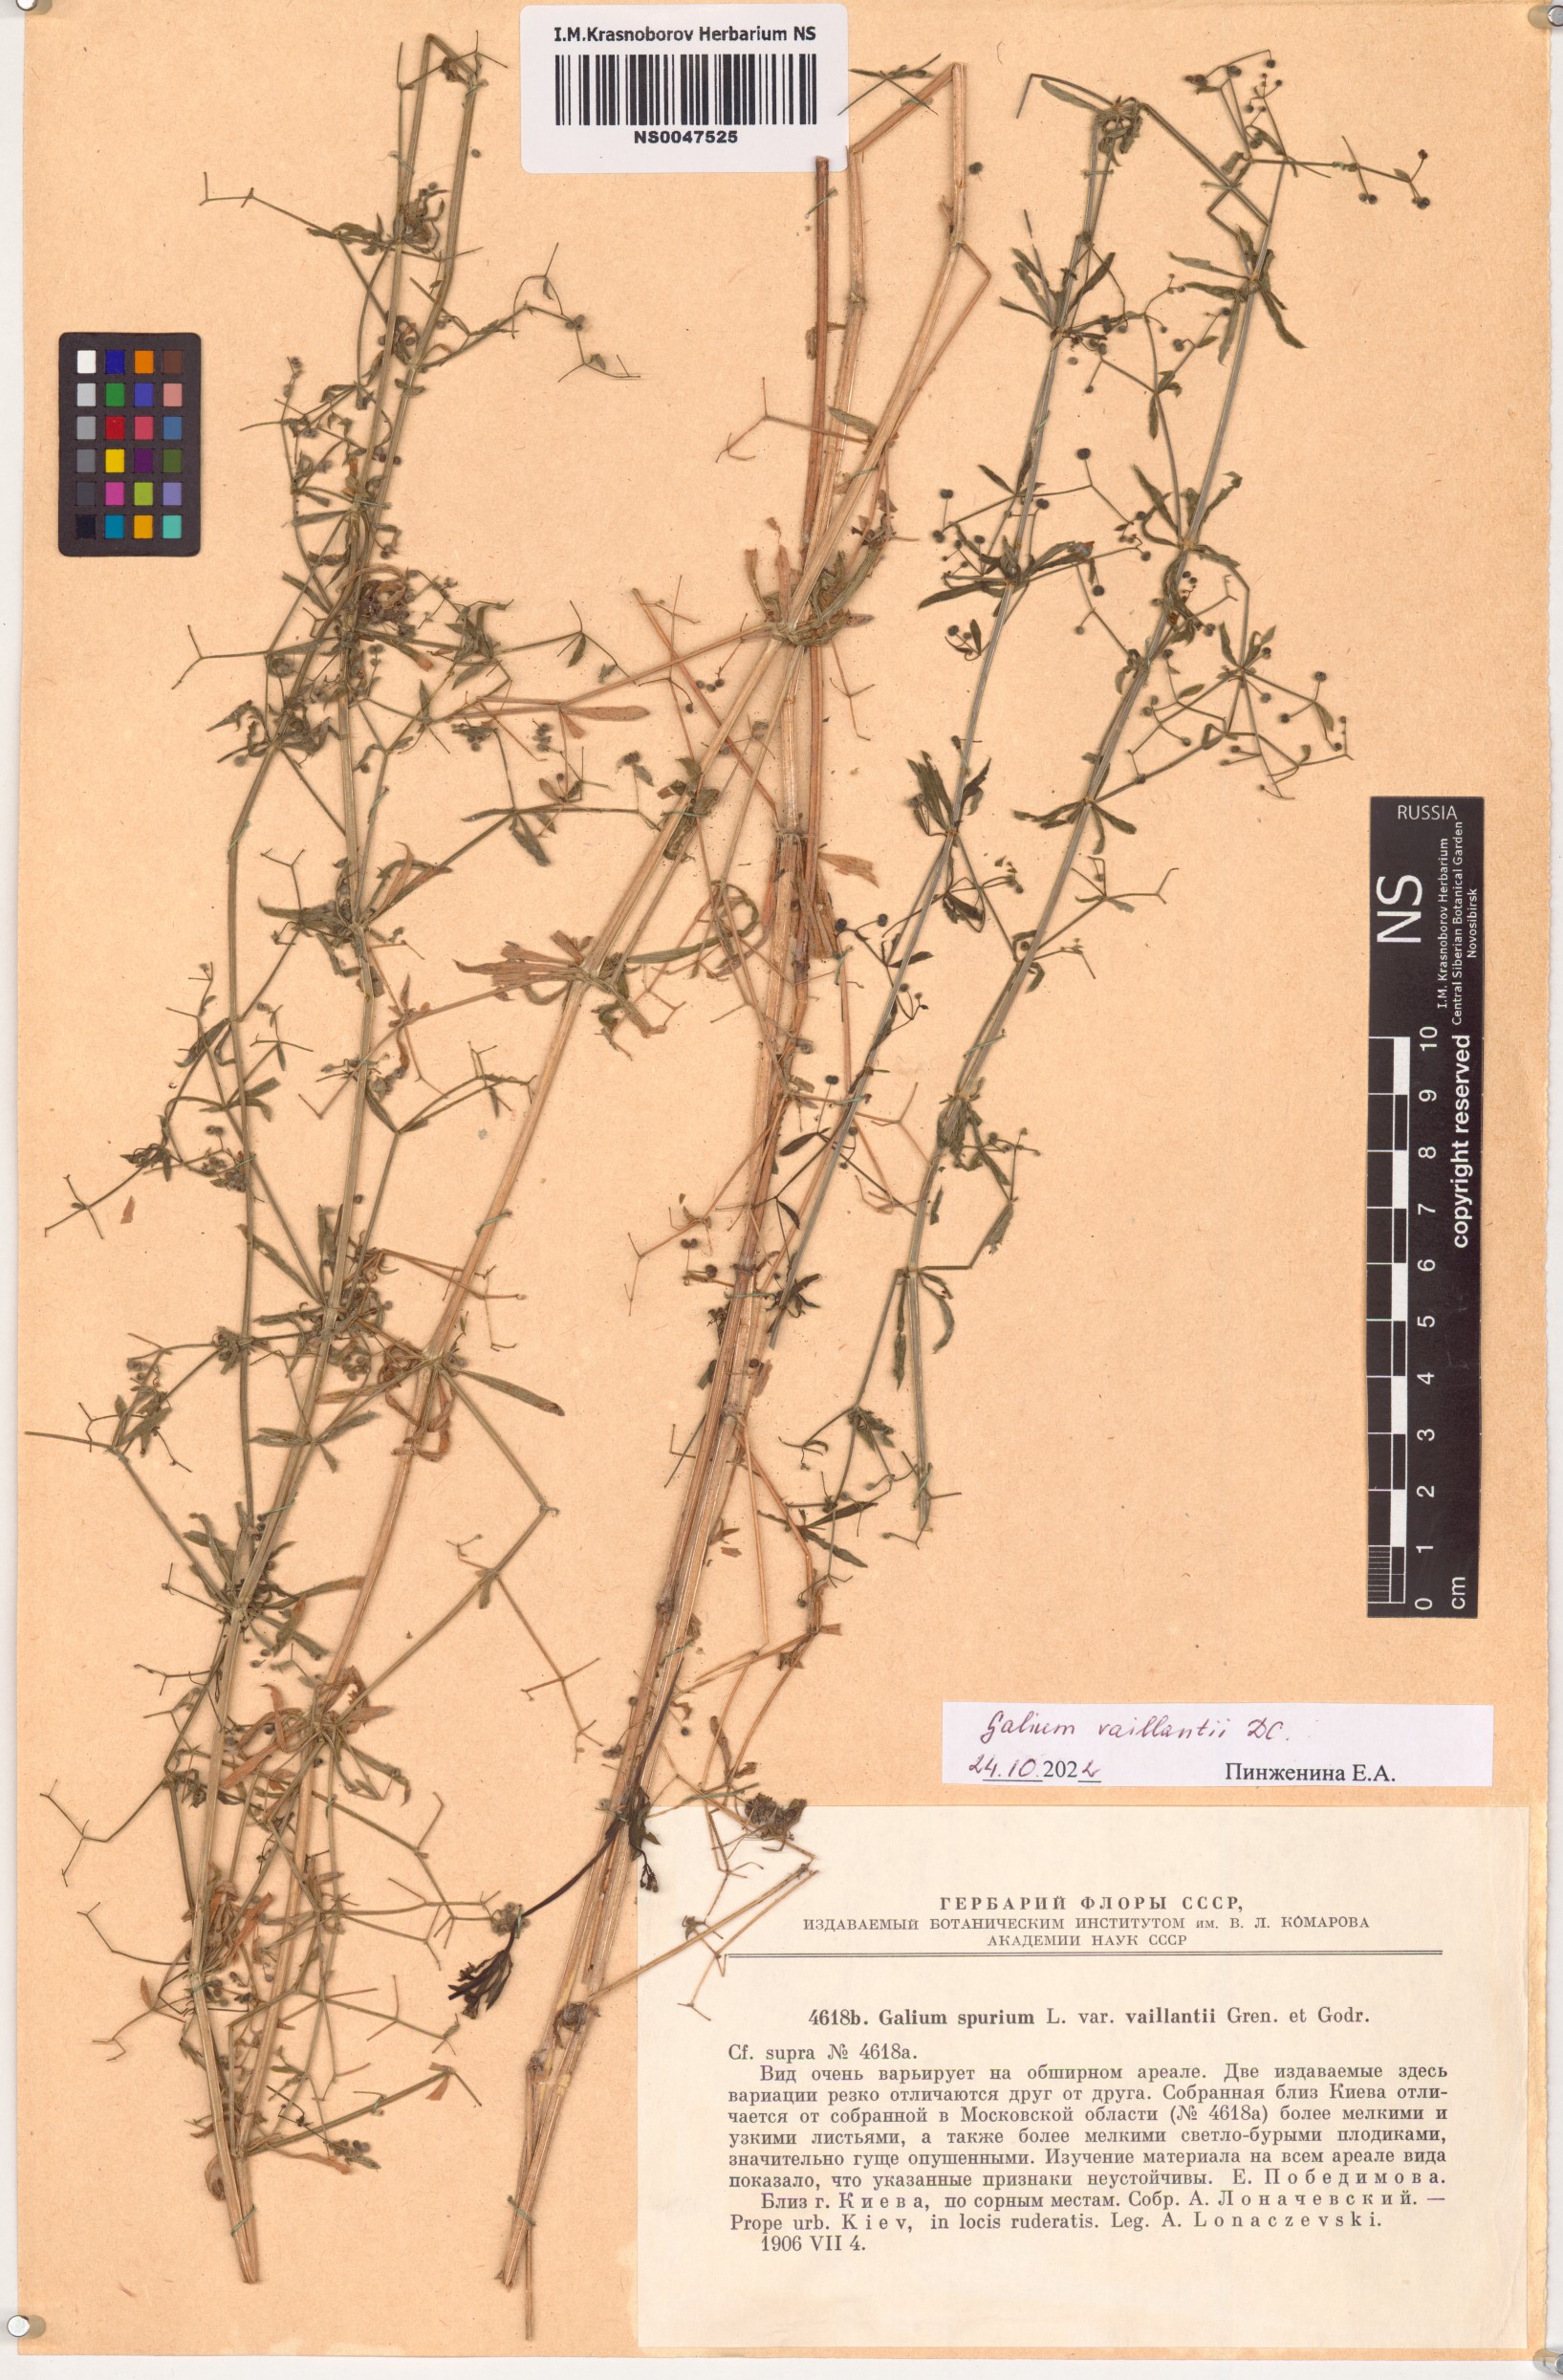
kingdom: Plantae
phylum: Tracheophyta
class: Magnoliopsida
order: Gentianales
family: Rubiaceae
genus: Galium
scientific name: Galium spurium
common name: False cleavers
